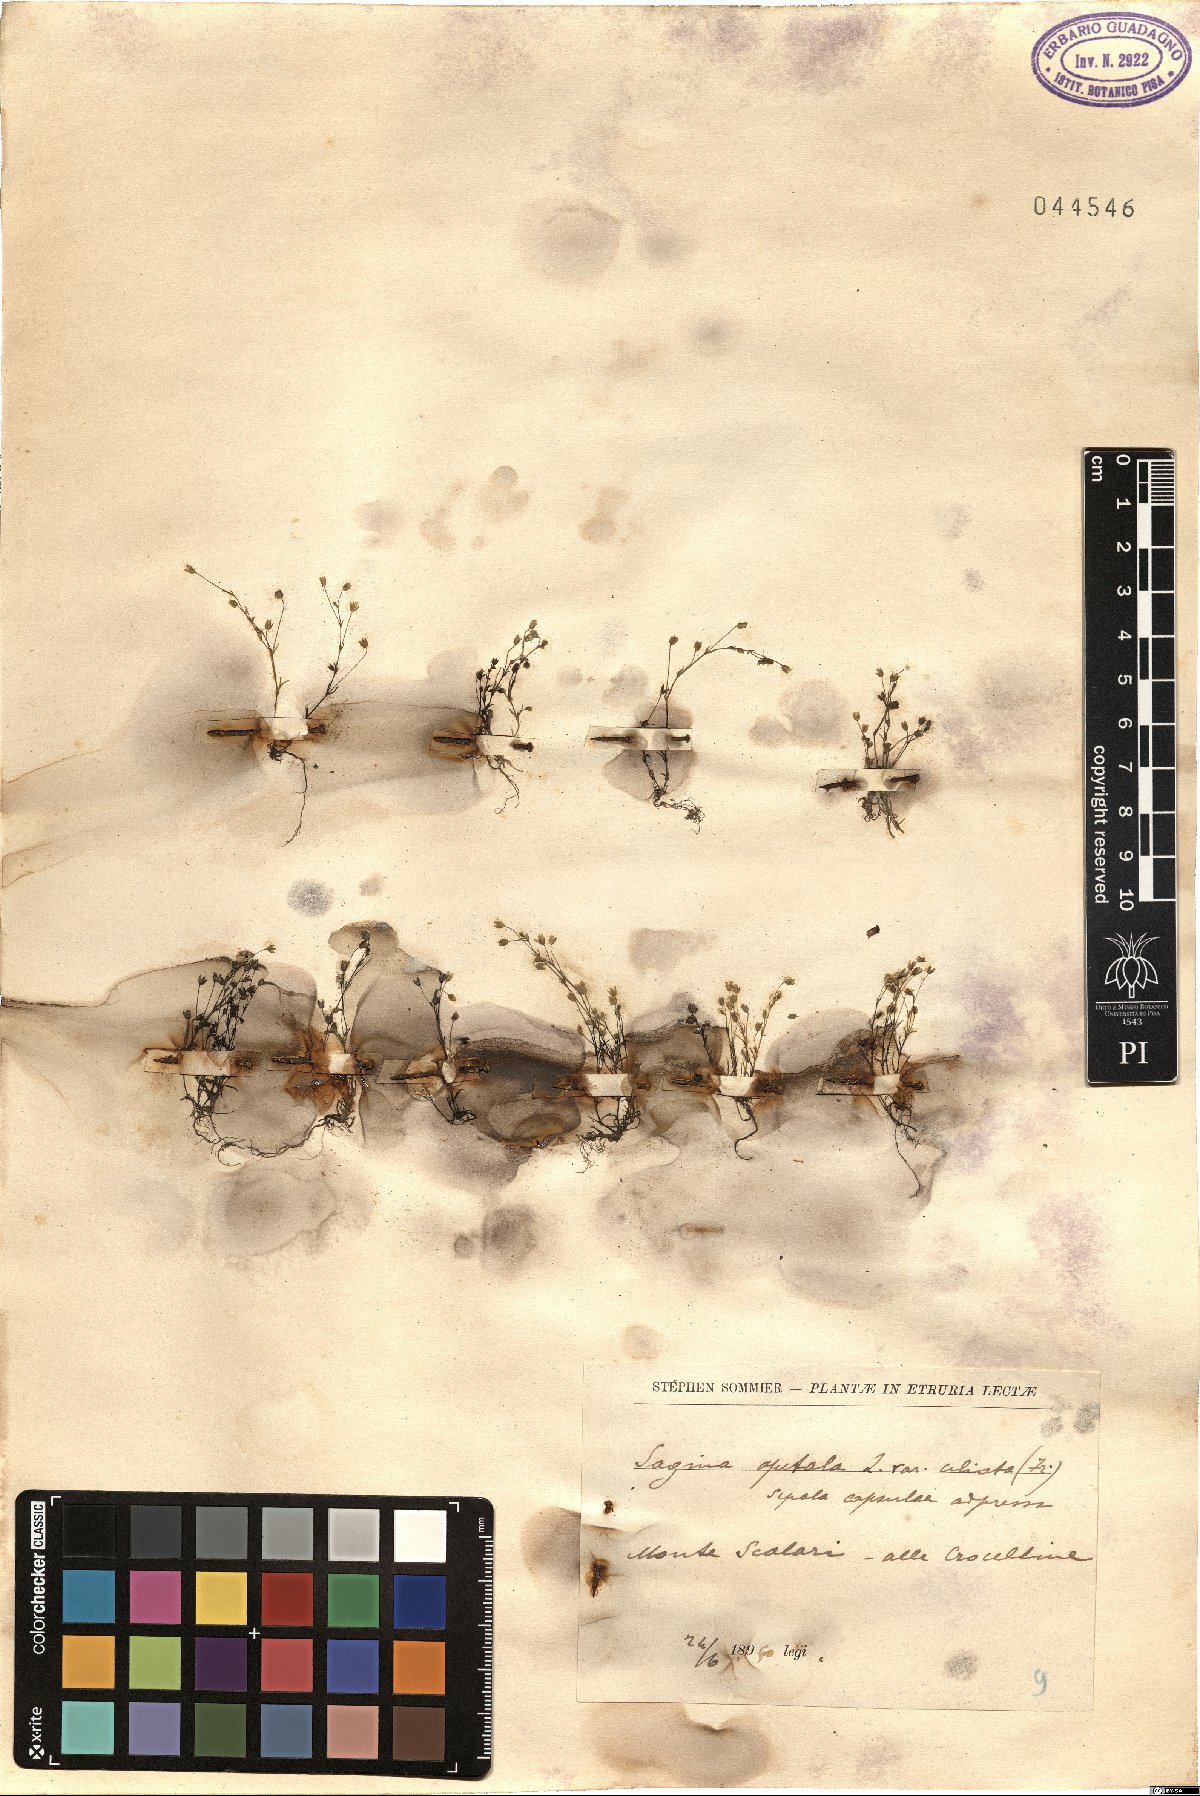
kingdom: Plantae
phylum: Tracheophyta
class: Magnoliopsida
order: Caryophyllales
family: Caryophyllaceae
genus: Sagina
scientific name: Sagina apetala
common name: Annual pearlwort
